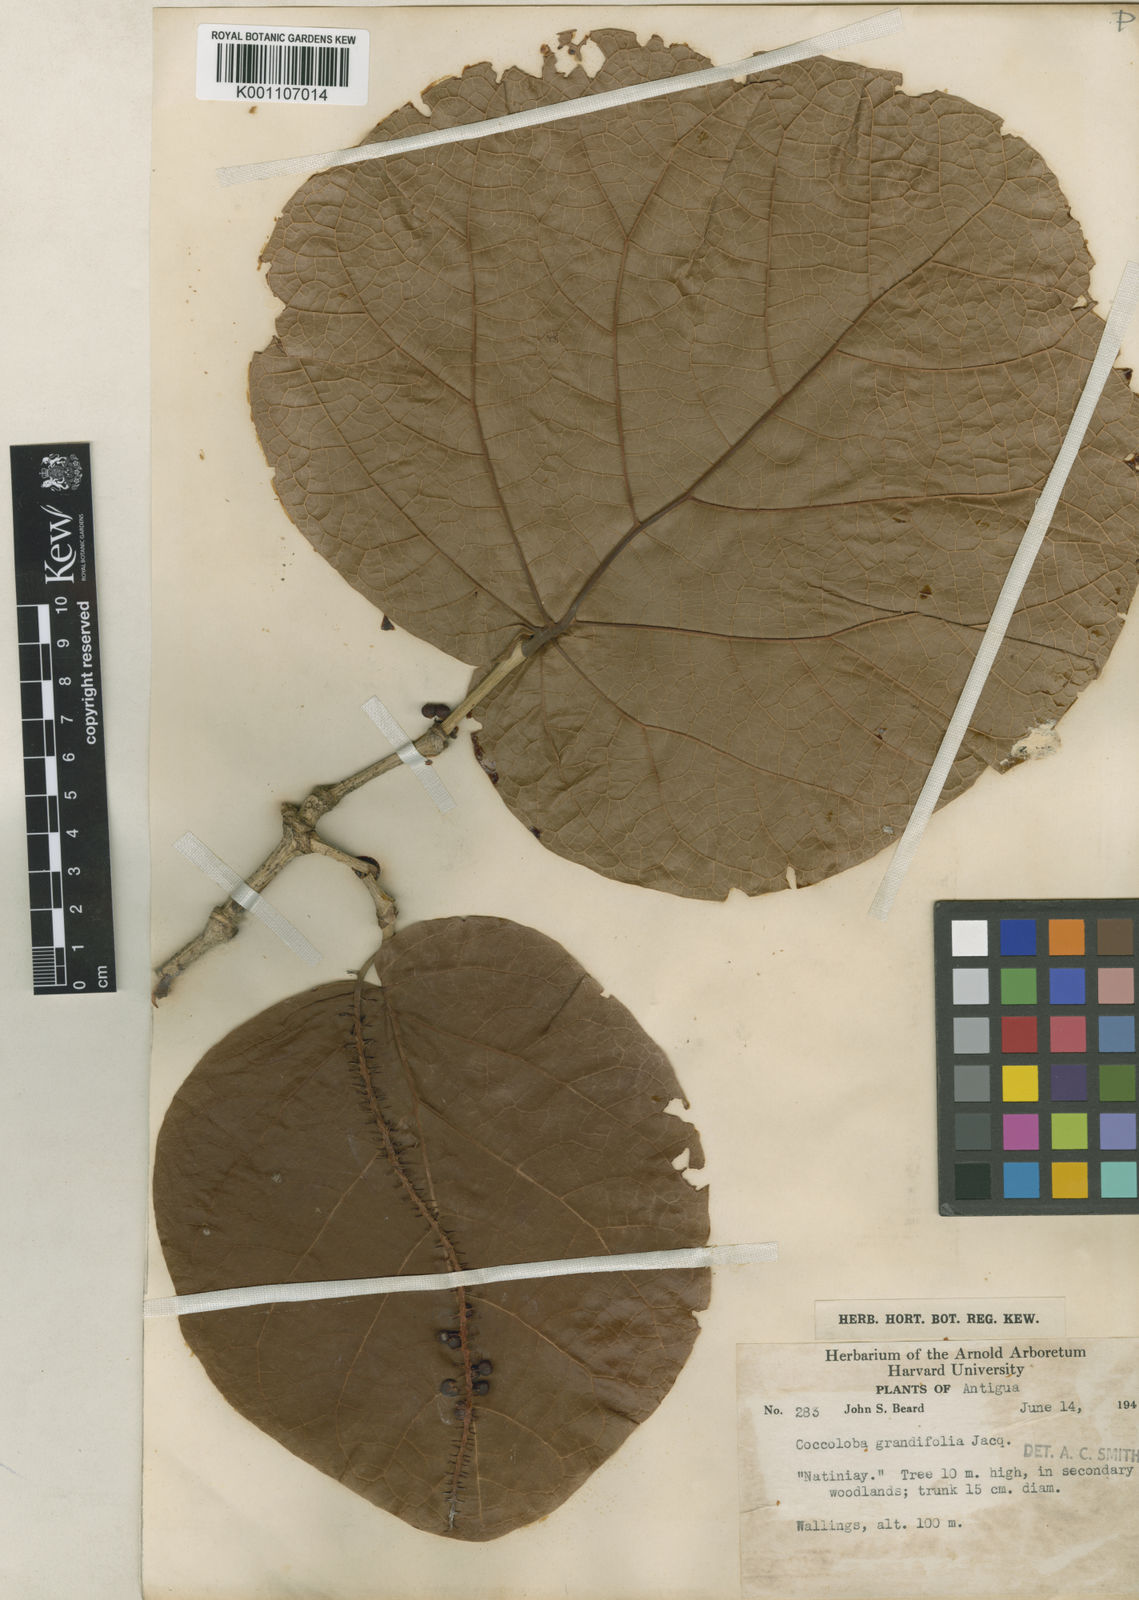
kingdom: Plantae
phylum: Tracheophyta
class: Magnoliopsida
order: Caryophyllales
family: Polygonaceae
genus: Coccoloba
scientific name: Coccoloba pubescens
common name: Mountain-grape
